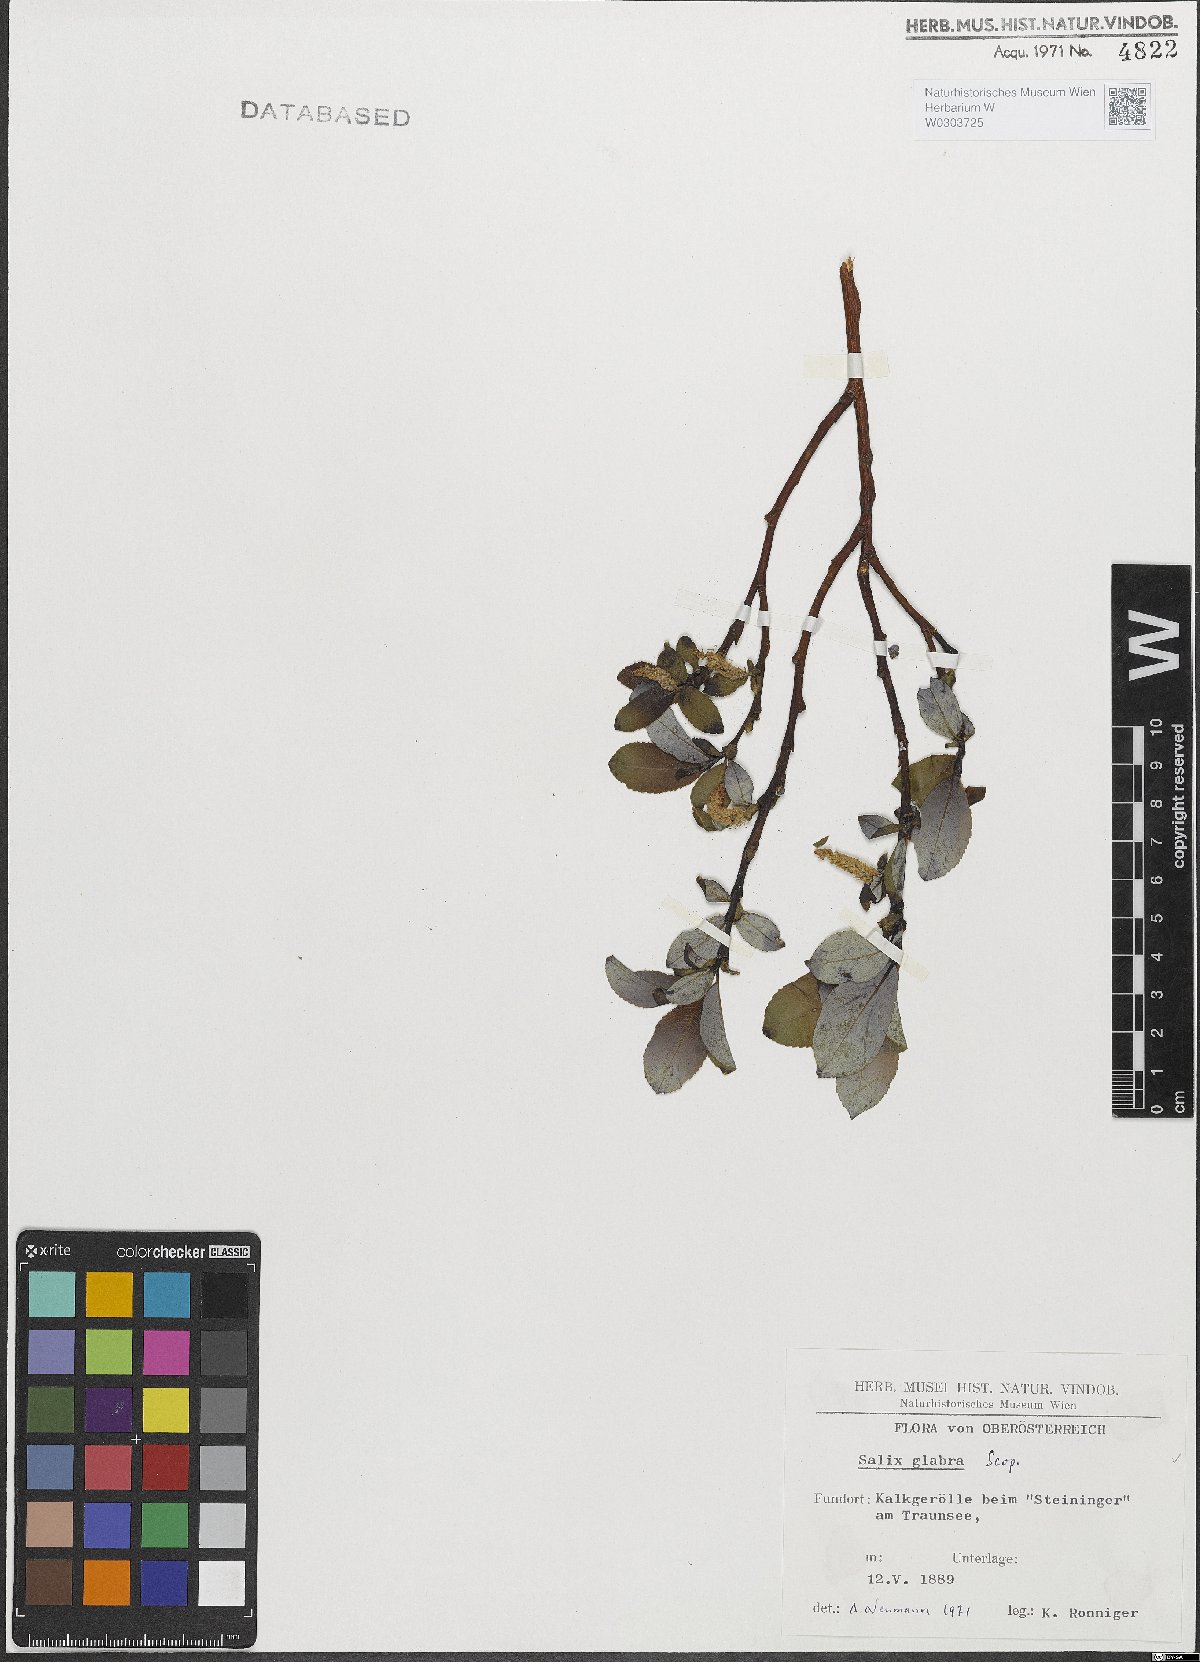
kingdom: Plantae
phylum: Tracheophyta
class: Magnoliopsida
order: Malpighiales
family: Salicaceae
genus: Salix
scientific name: Salix glabra
